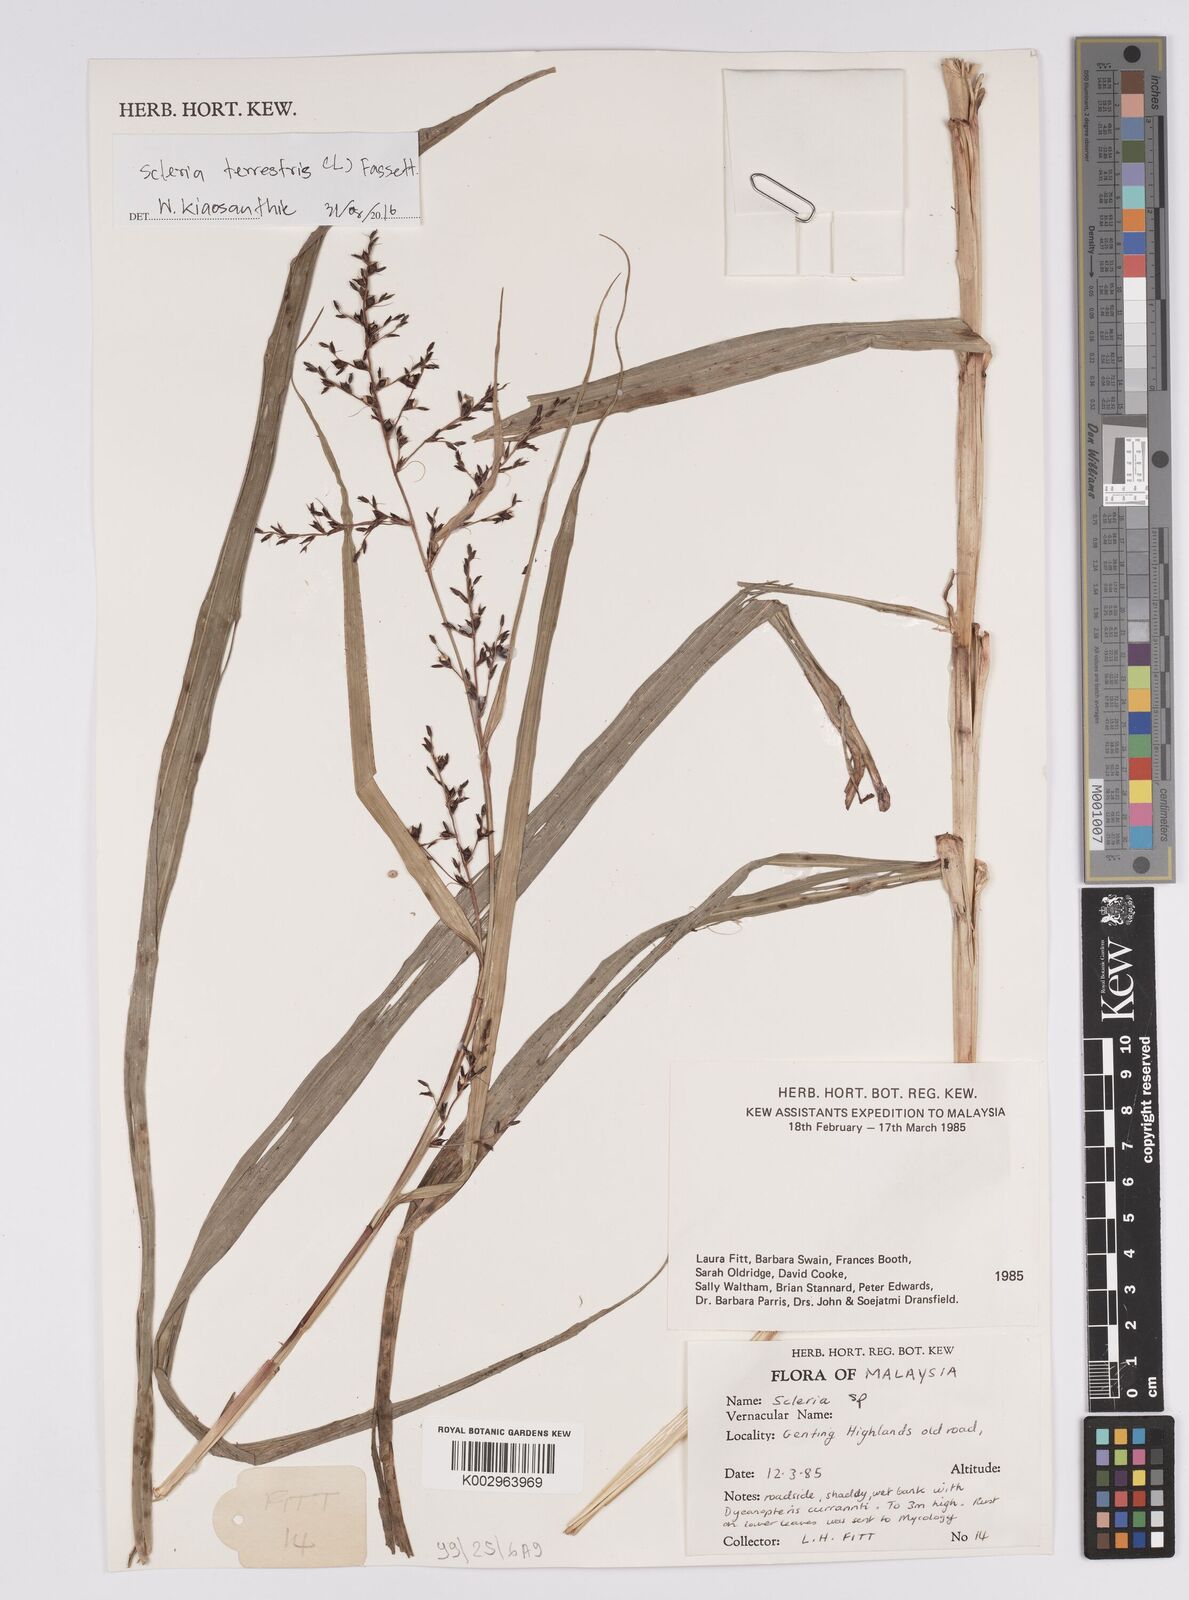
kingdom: Plantae
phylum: Tracheophyta
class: Liliopsida
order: Poales
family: Cyperaceae
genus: Scleria
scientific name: Scleria terrestris
